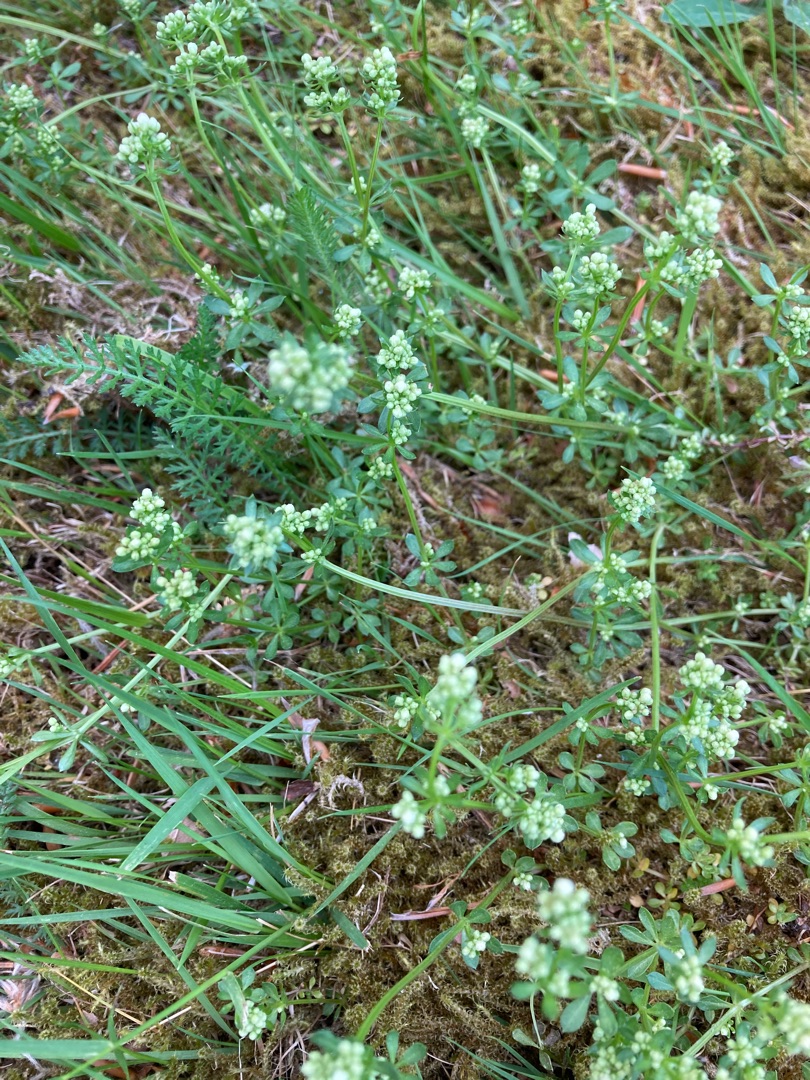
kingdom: Plantae
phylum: Tracheophyta
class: Magnoliopsida
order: Gentianales
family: Rubiaceae
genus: Galium
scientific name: Galium saxatile
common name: Lyng-snerre
